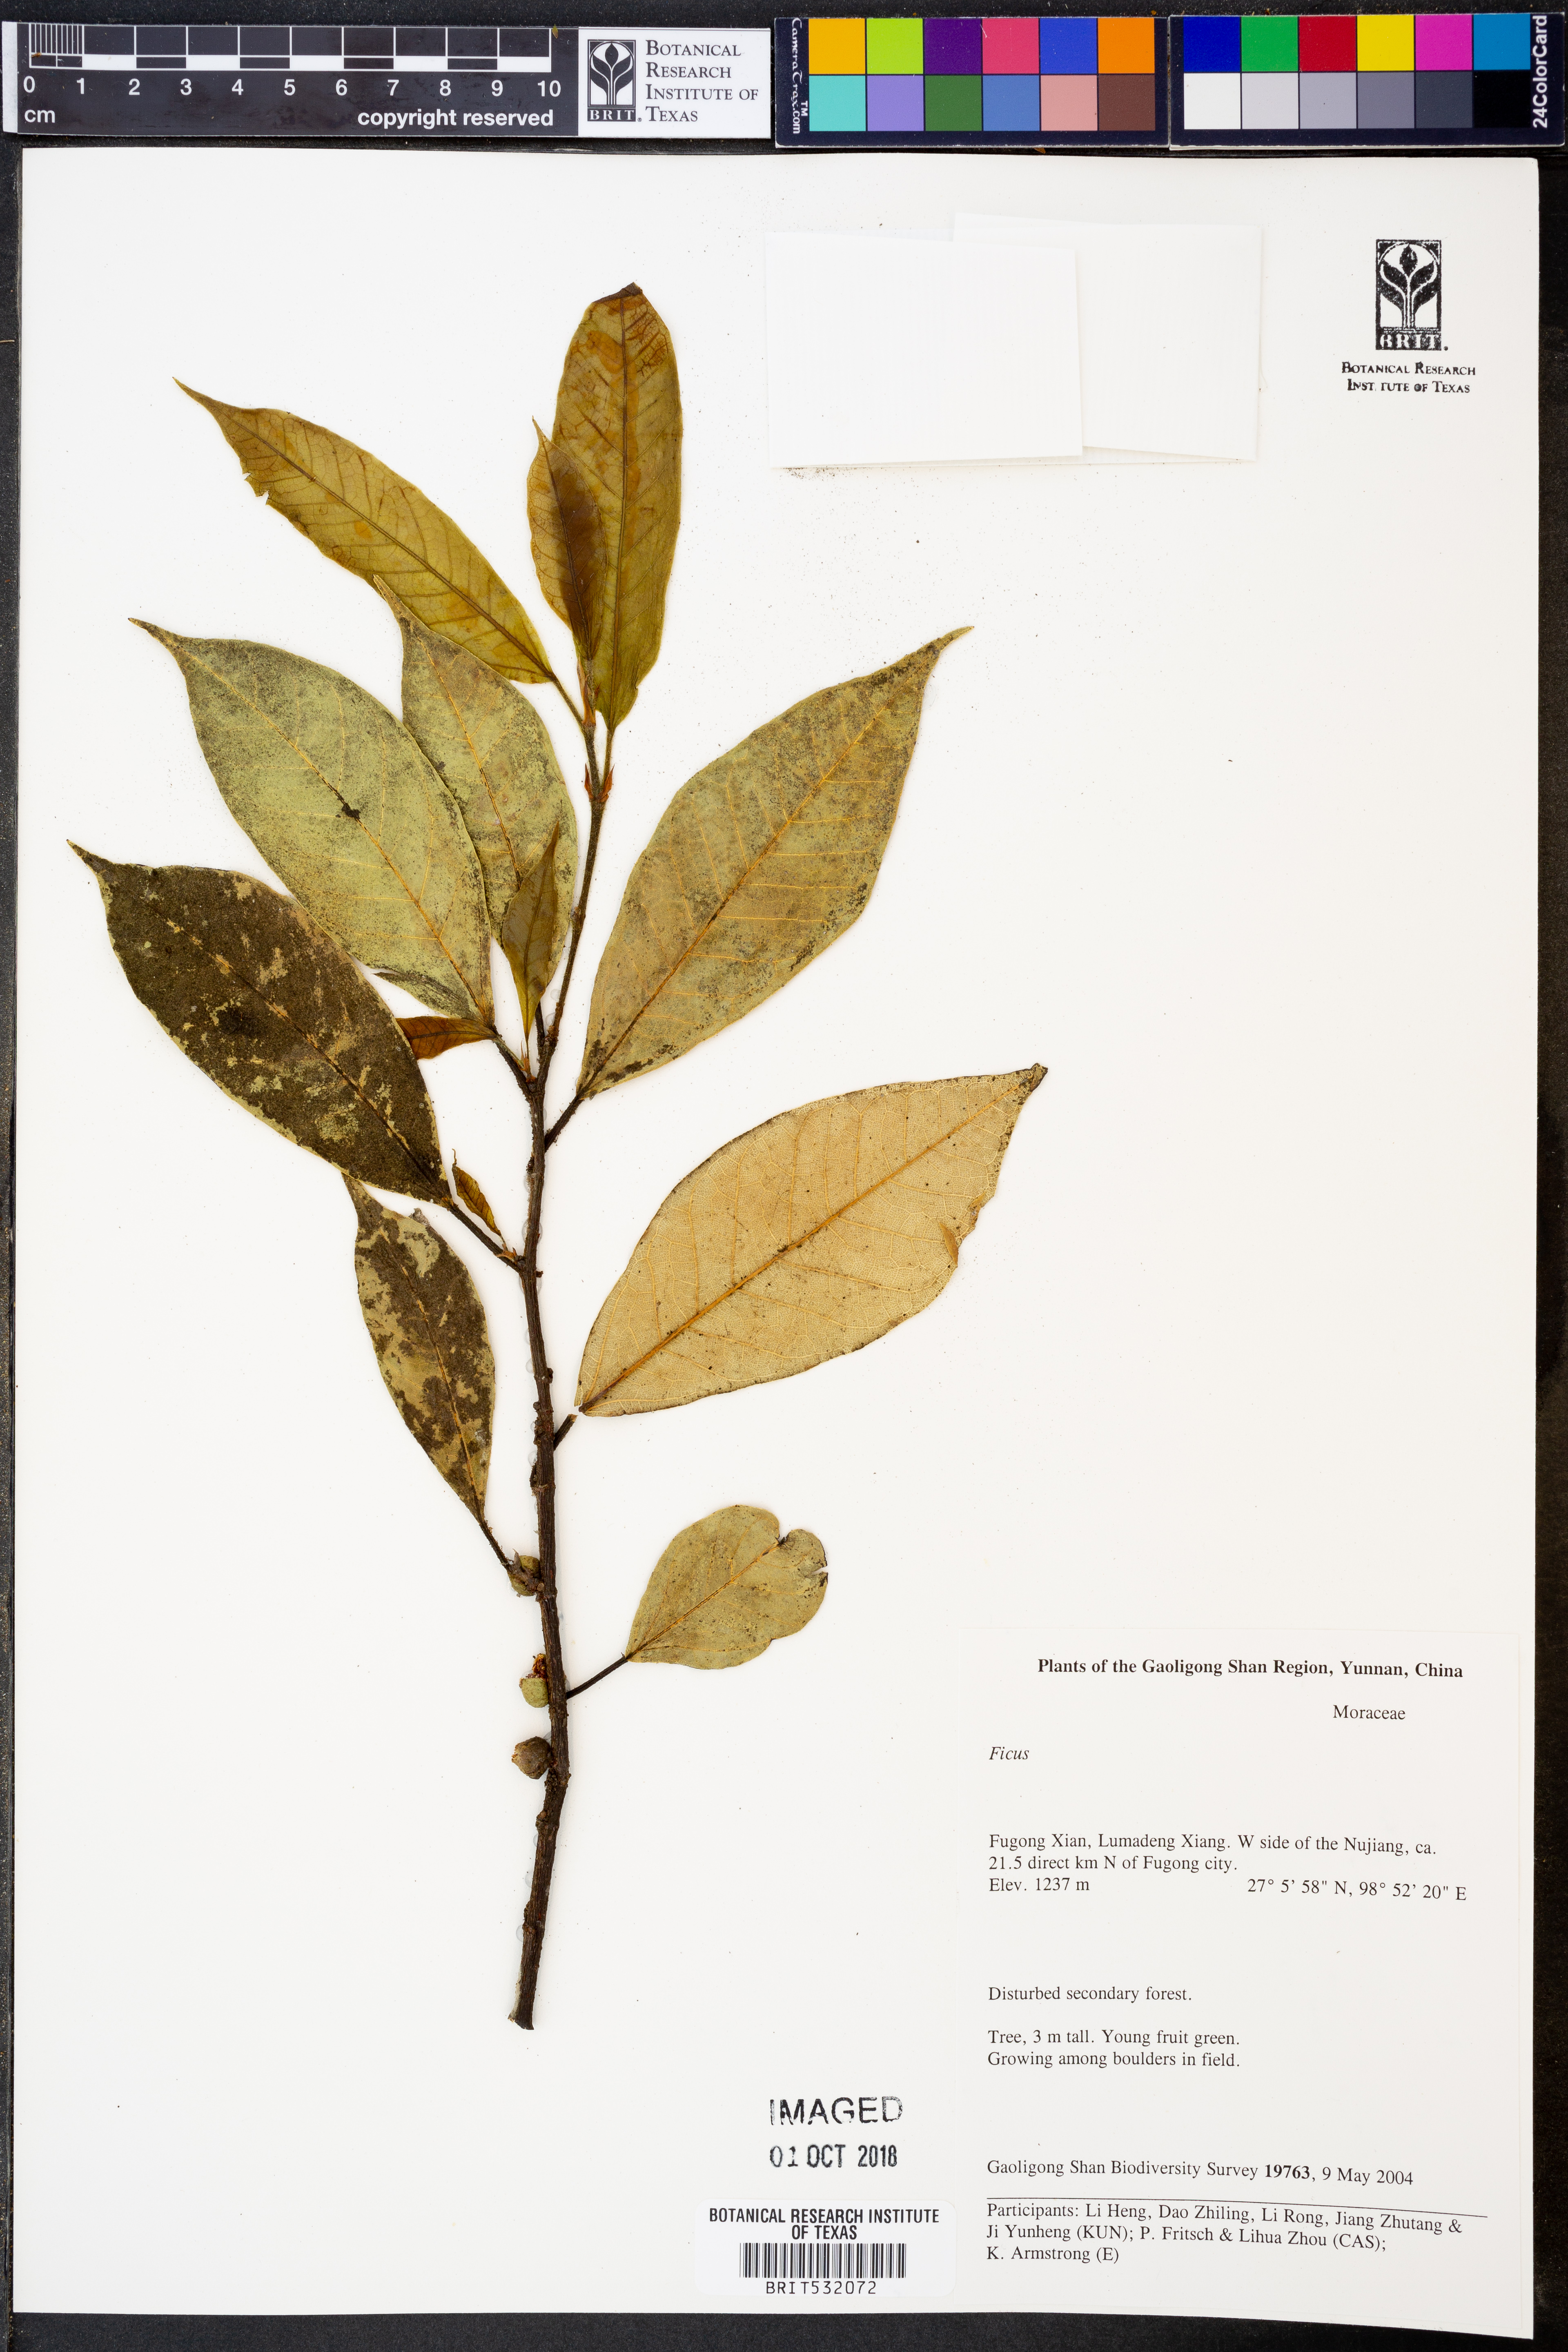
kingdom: Plantae
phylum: Tracheophyta
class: Magnoliopsida
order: Rosales
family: Moraceae
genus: Ficus
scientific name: Ficus
